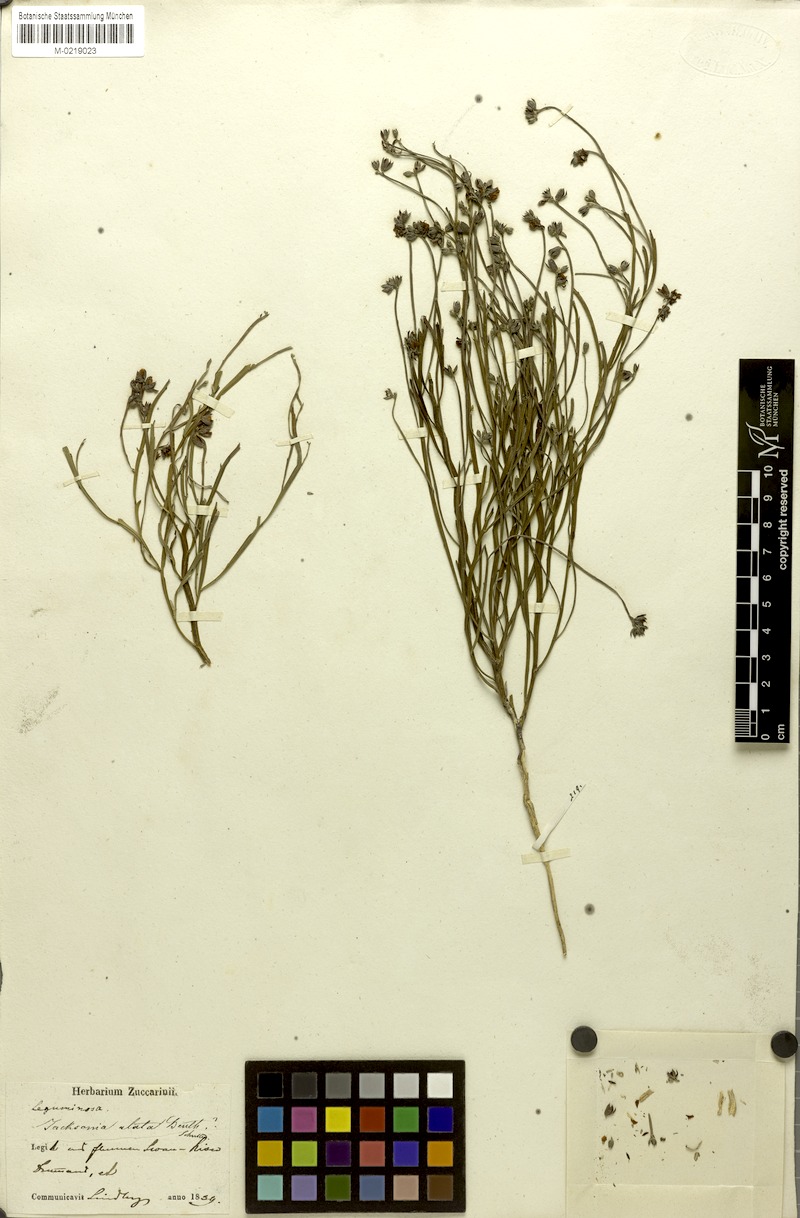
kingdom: Plantae
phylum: Tracheophyta
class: Magnoliopsida
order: Fabales
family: Fabaceae
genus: Jacksonia
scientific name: Jacksonia alata
